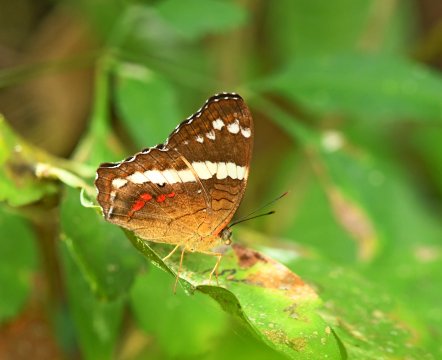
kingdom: Animalia
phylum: Arthropoda
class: Insecta
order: Lepidoptera
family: Nymphalidae
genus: Anartia
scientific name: Anartia fatima
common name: Banded Peacock
